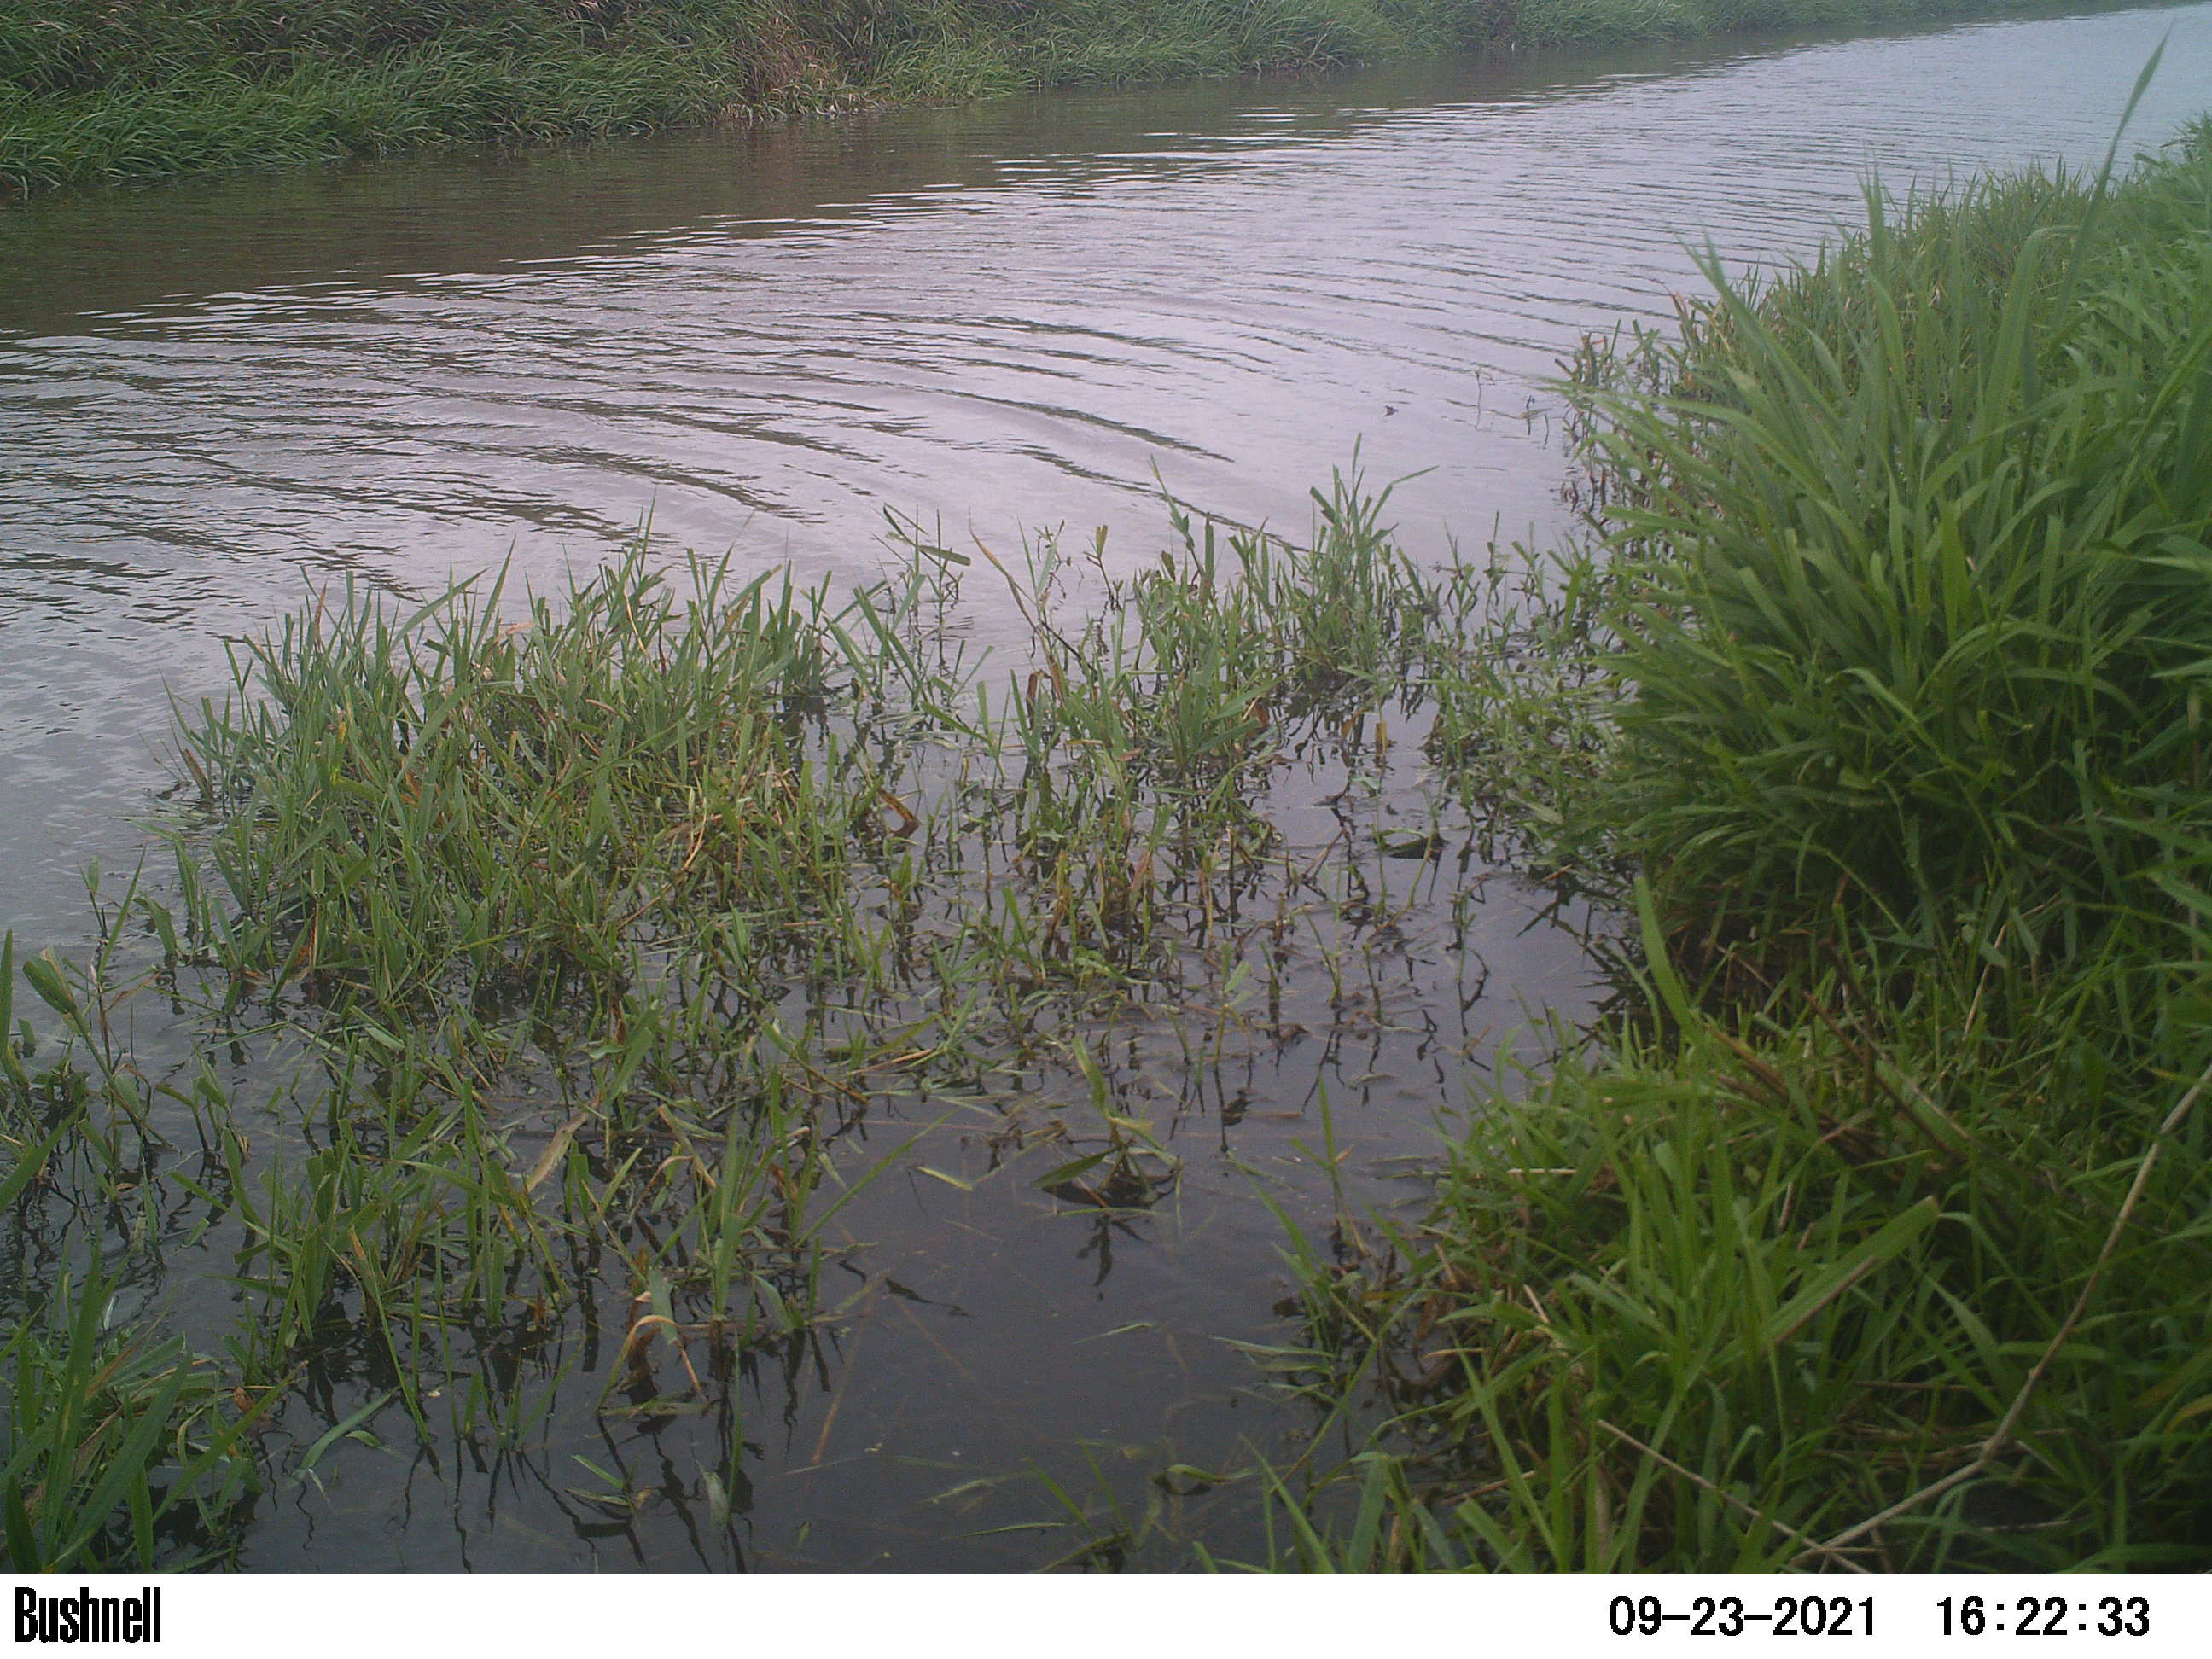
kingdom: Animalia
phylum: Chordata
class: Aves
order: Gruiformes
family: Rallidae
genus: Fulica
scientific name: Fulica atra
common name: Eurasian coot
